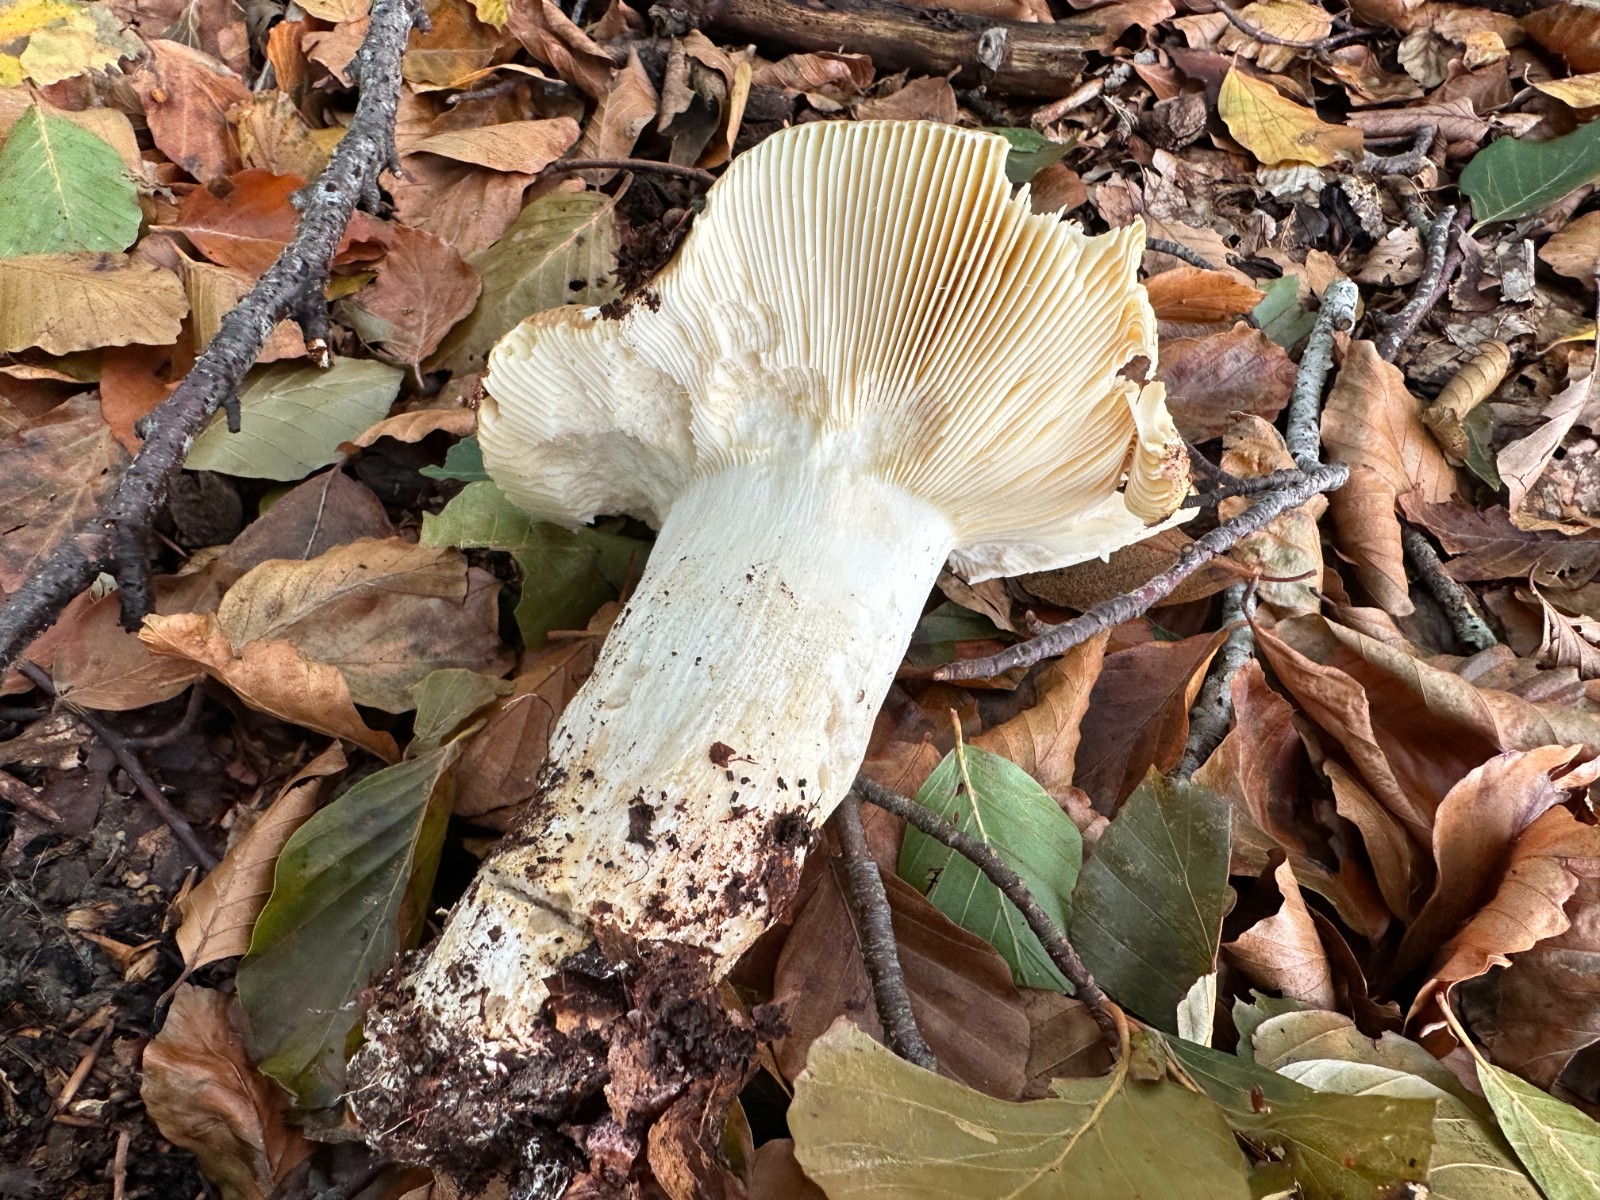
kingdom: Fungi
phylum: Basidiomycota
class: Agaricomycetes
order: Russulales
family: Russulaceae
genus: Russula
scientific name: Russula
